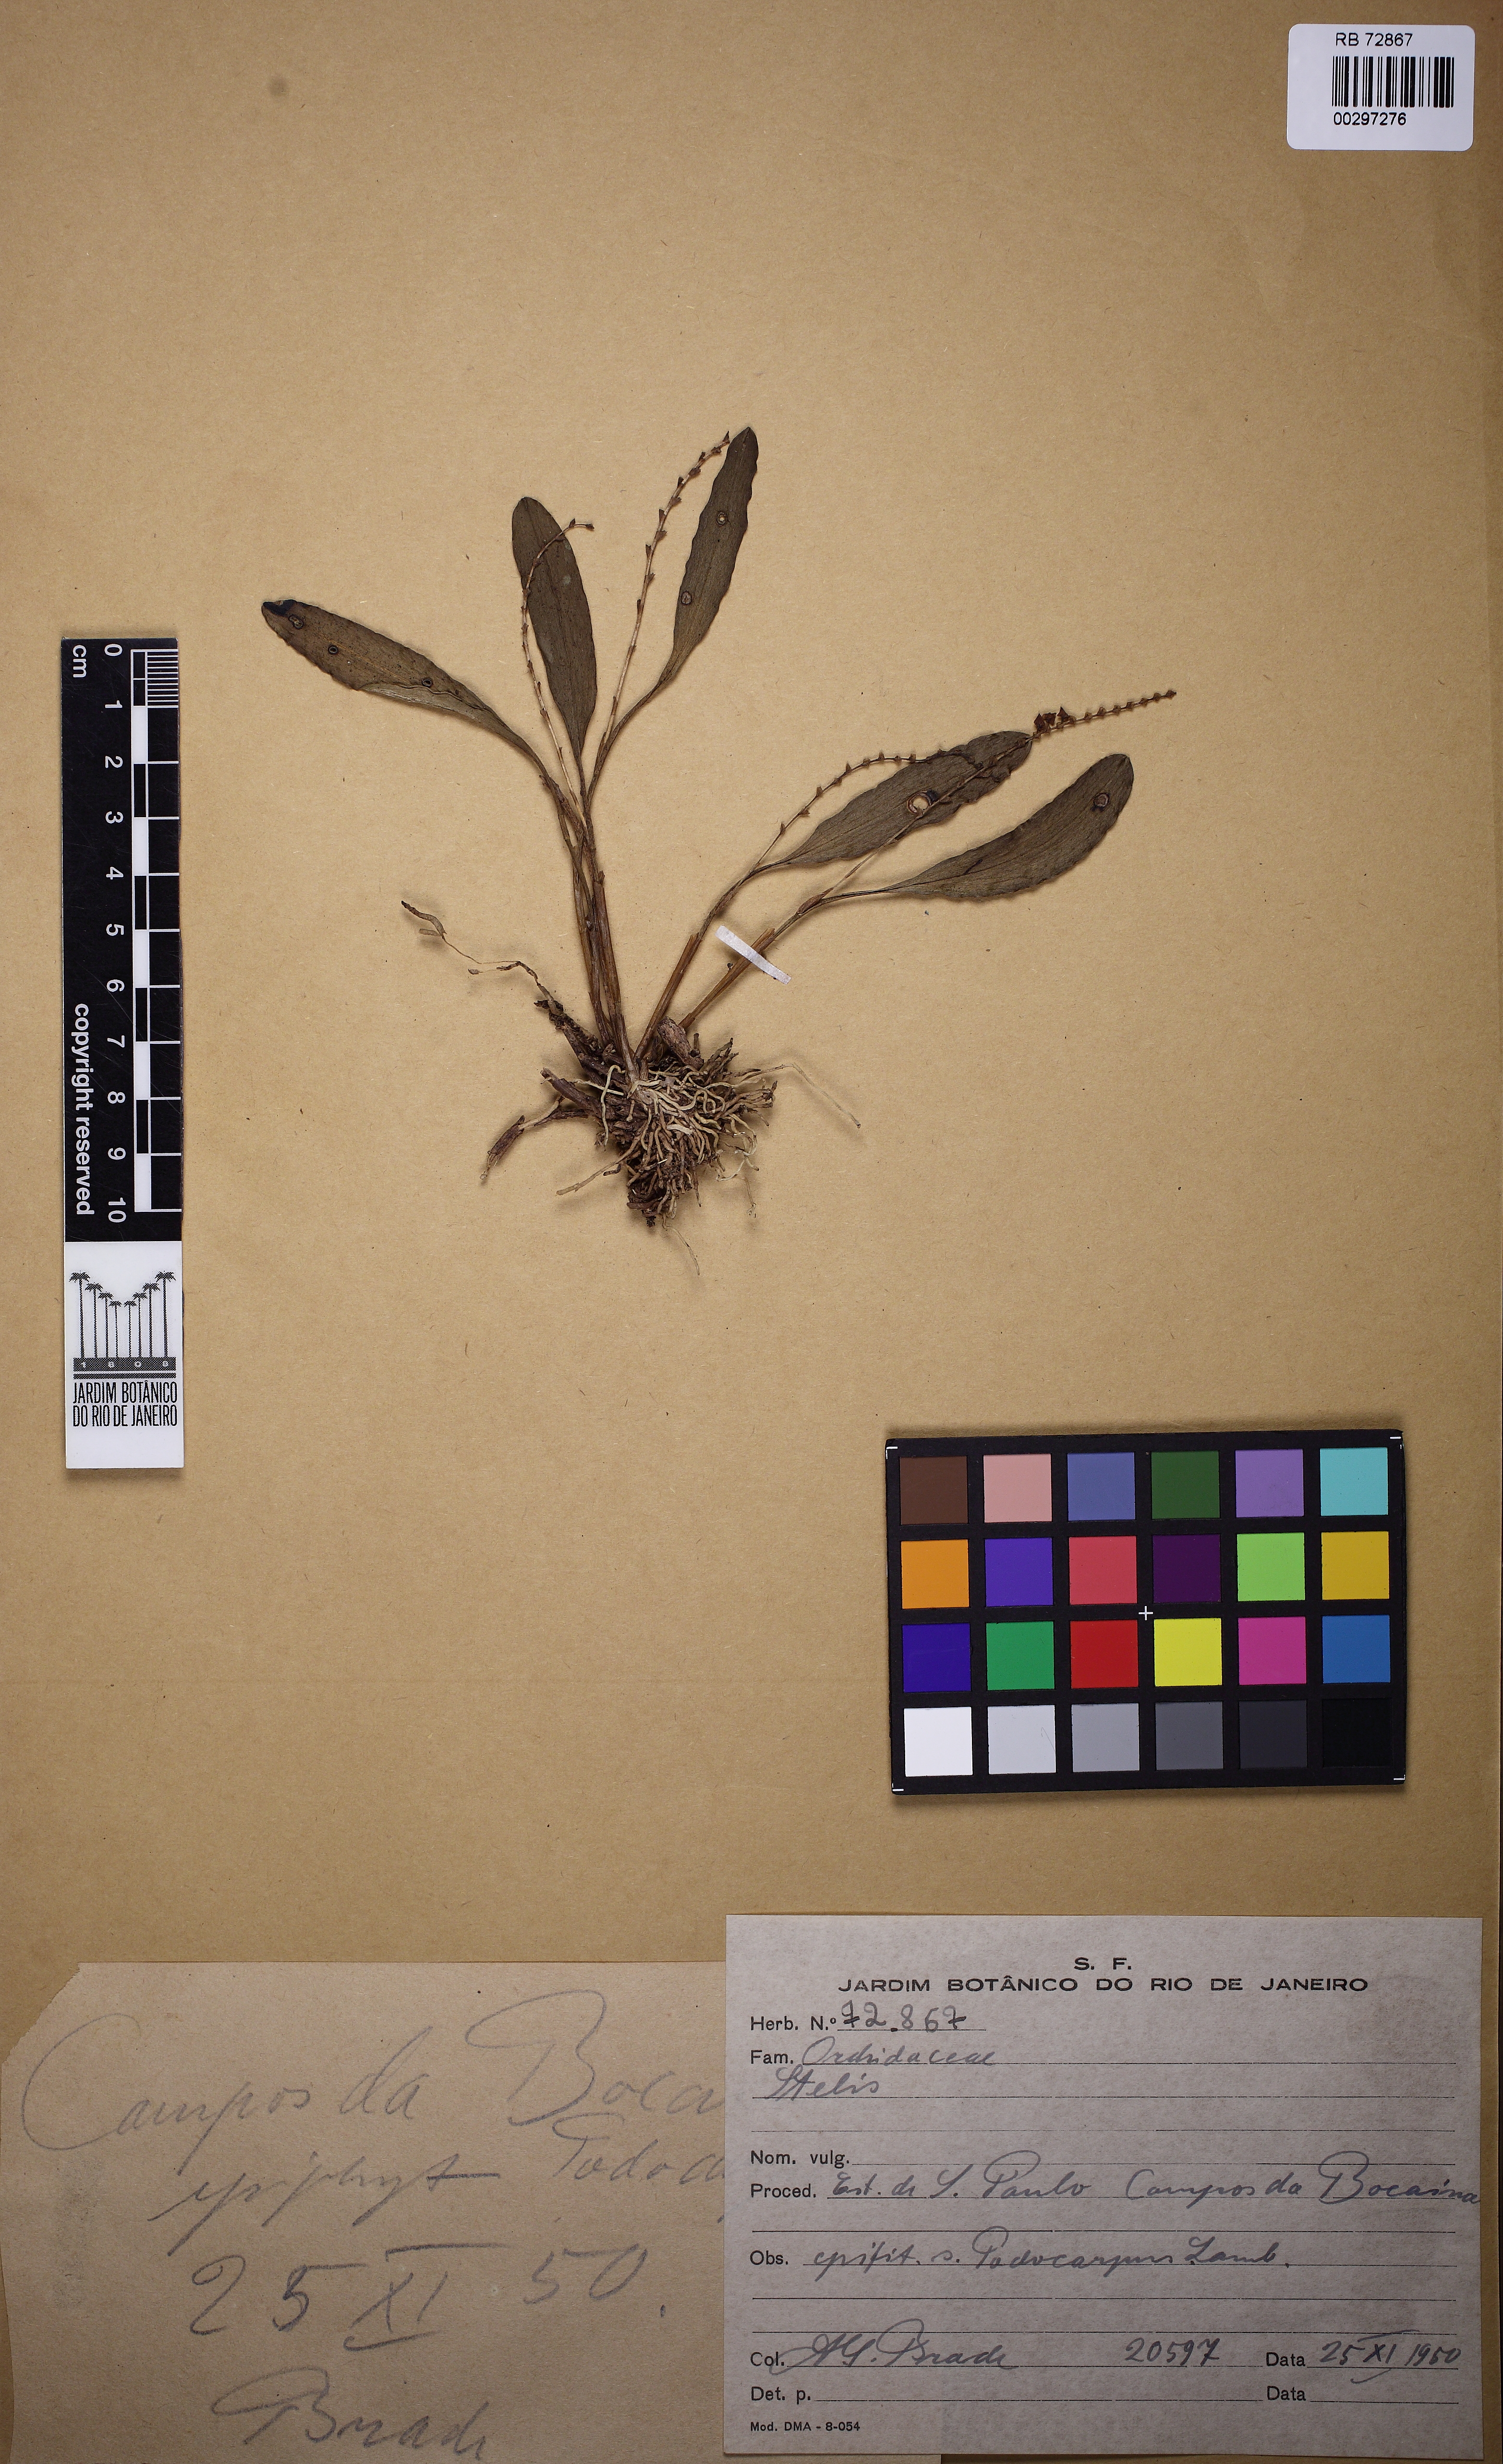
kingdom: Plantae
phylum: Tracheophyta
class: Liliopsida
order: Asparagales
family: Orchidaceae
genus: Stelis
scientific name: Stelis
